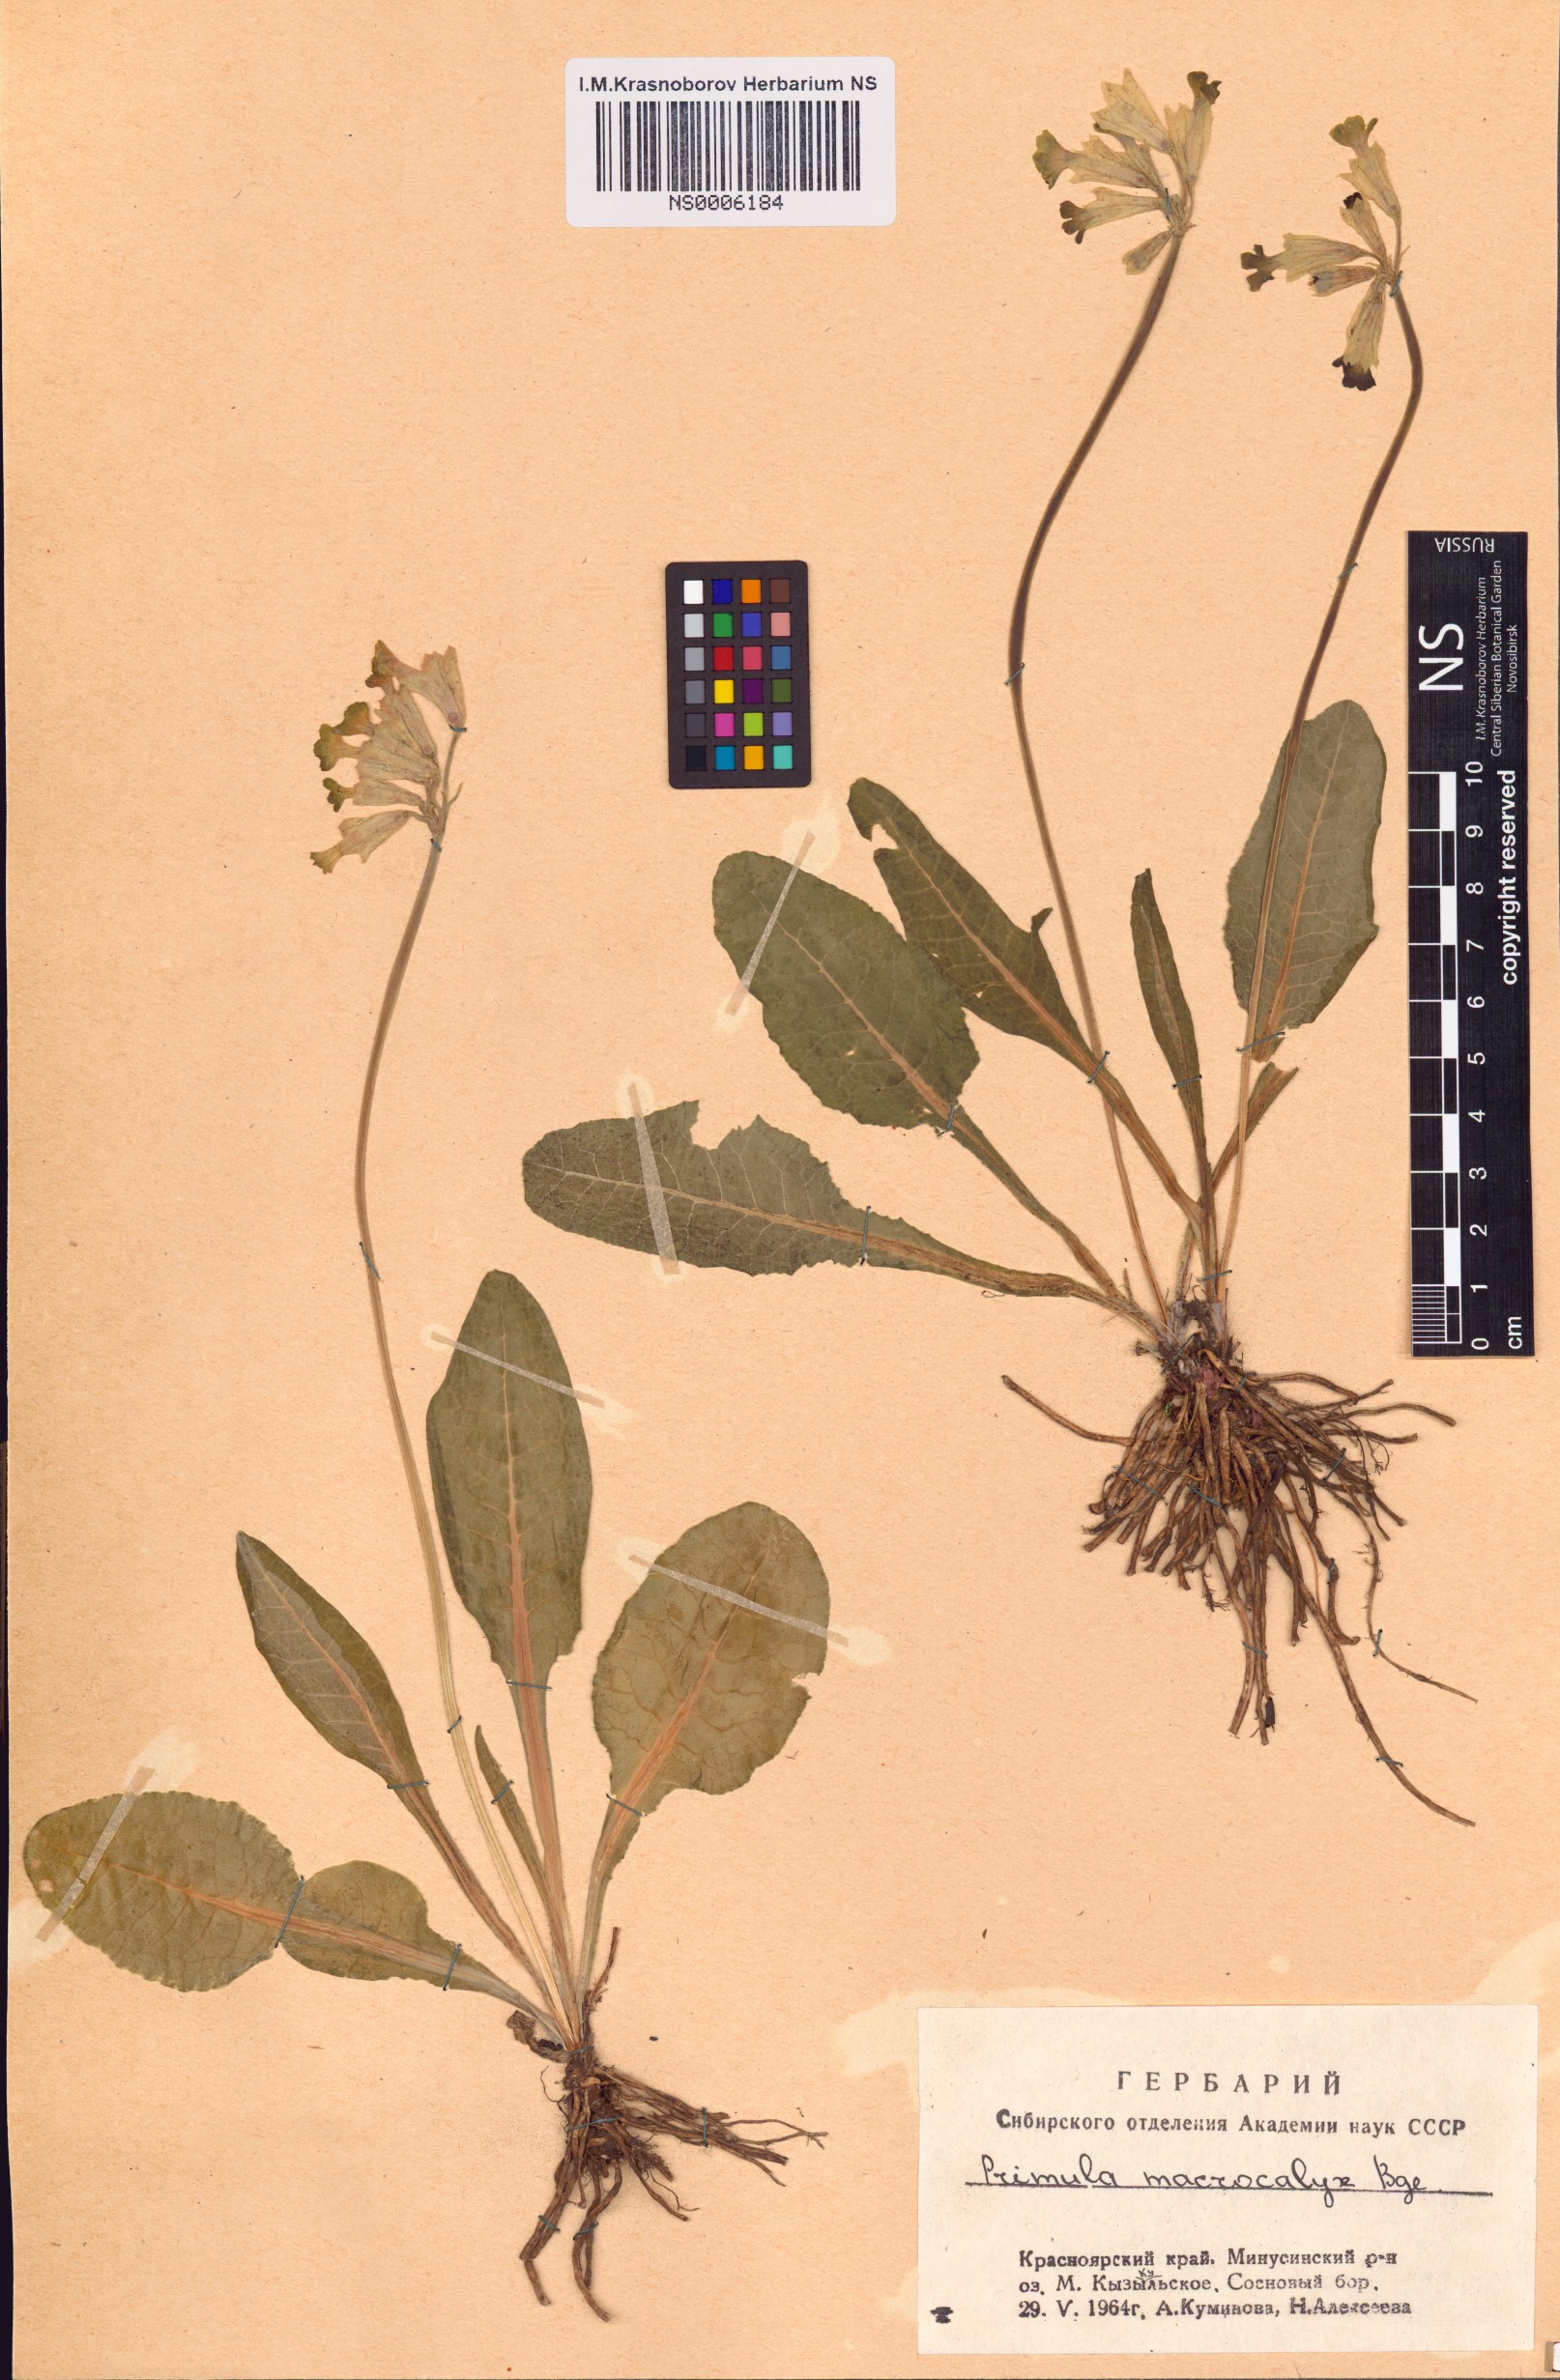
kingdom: Plantae
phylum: Tracheophyta
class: Magnoliopsida
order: Ericales
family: Primulaceae
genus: Primula
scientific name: Primula veris
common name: Cowslip
